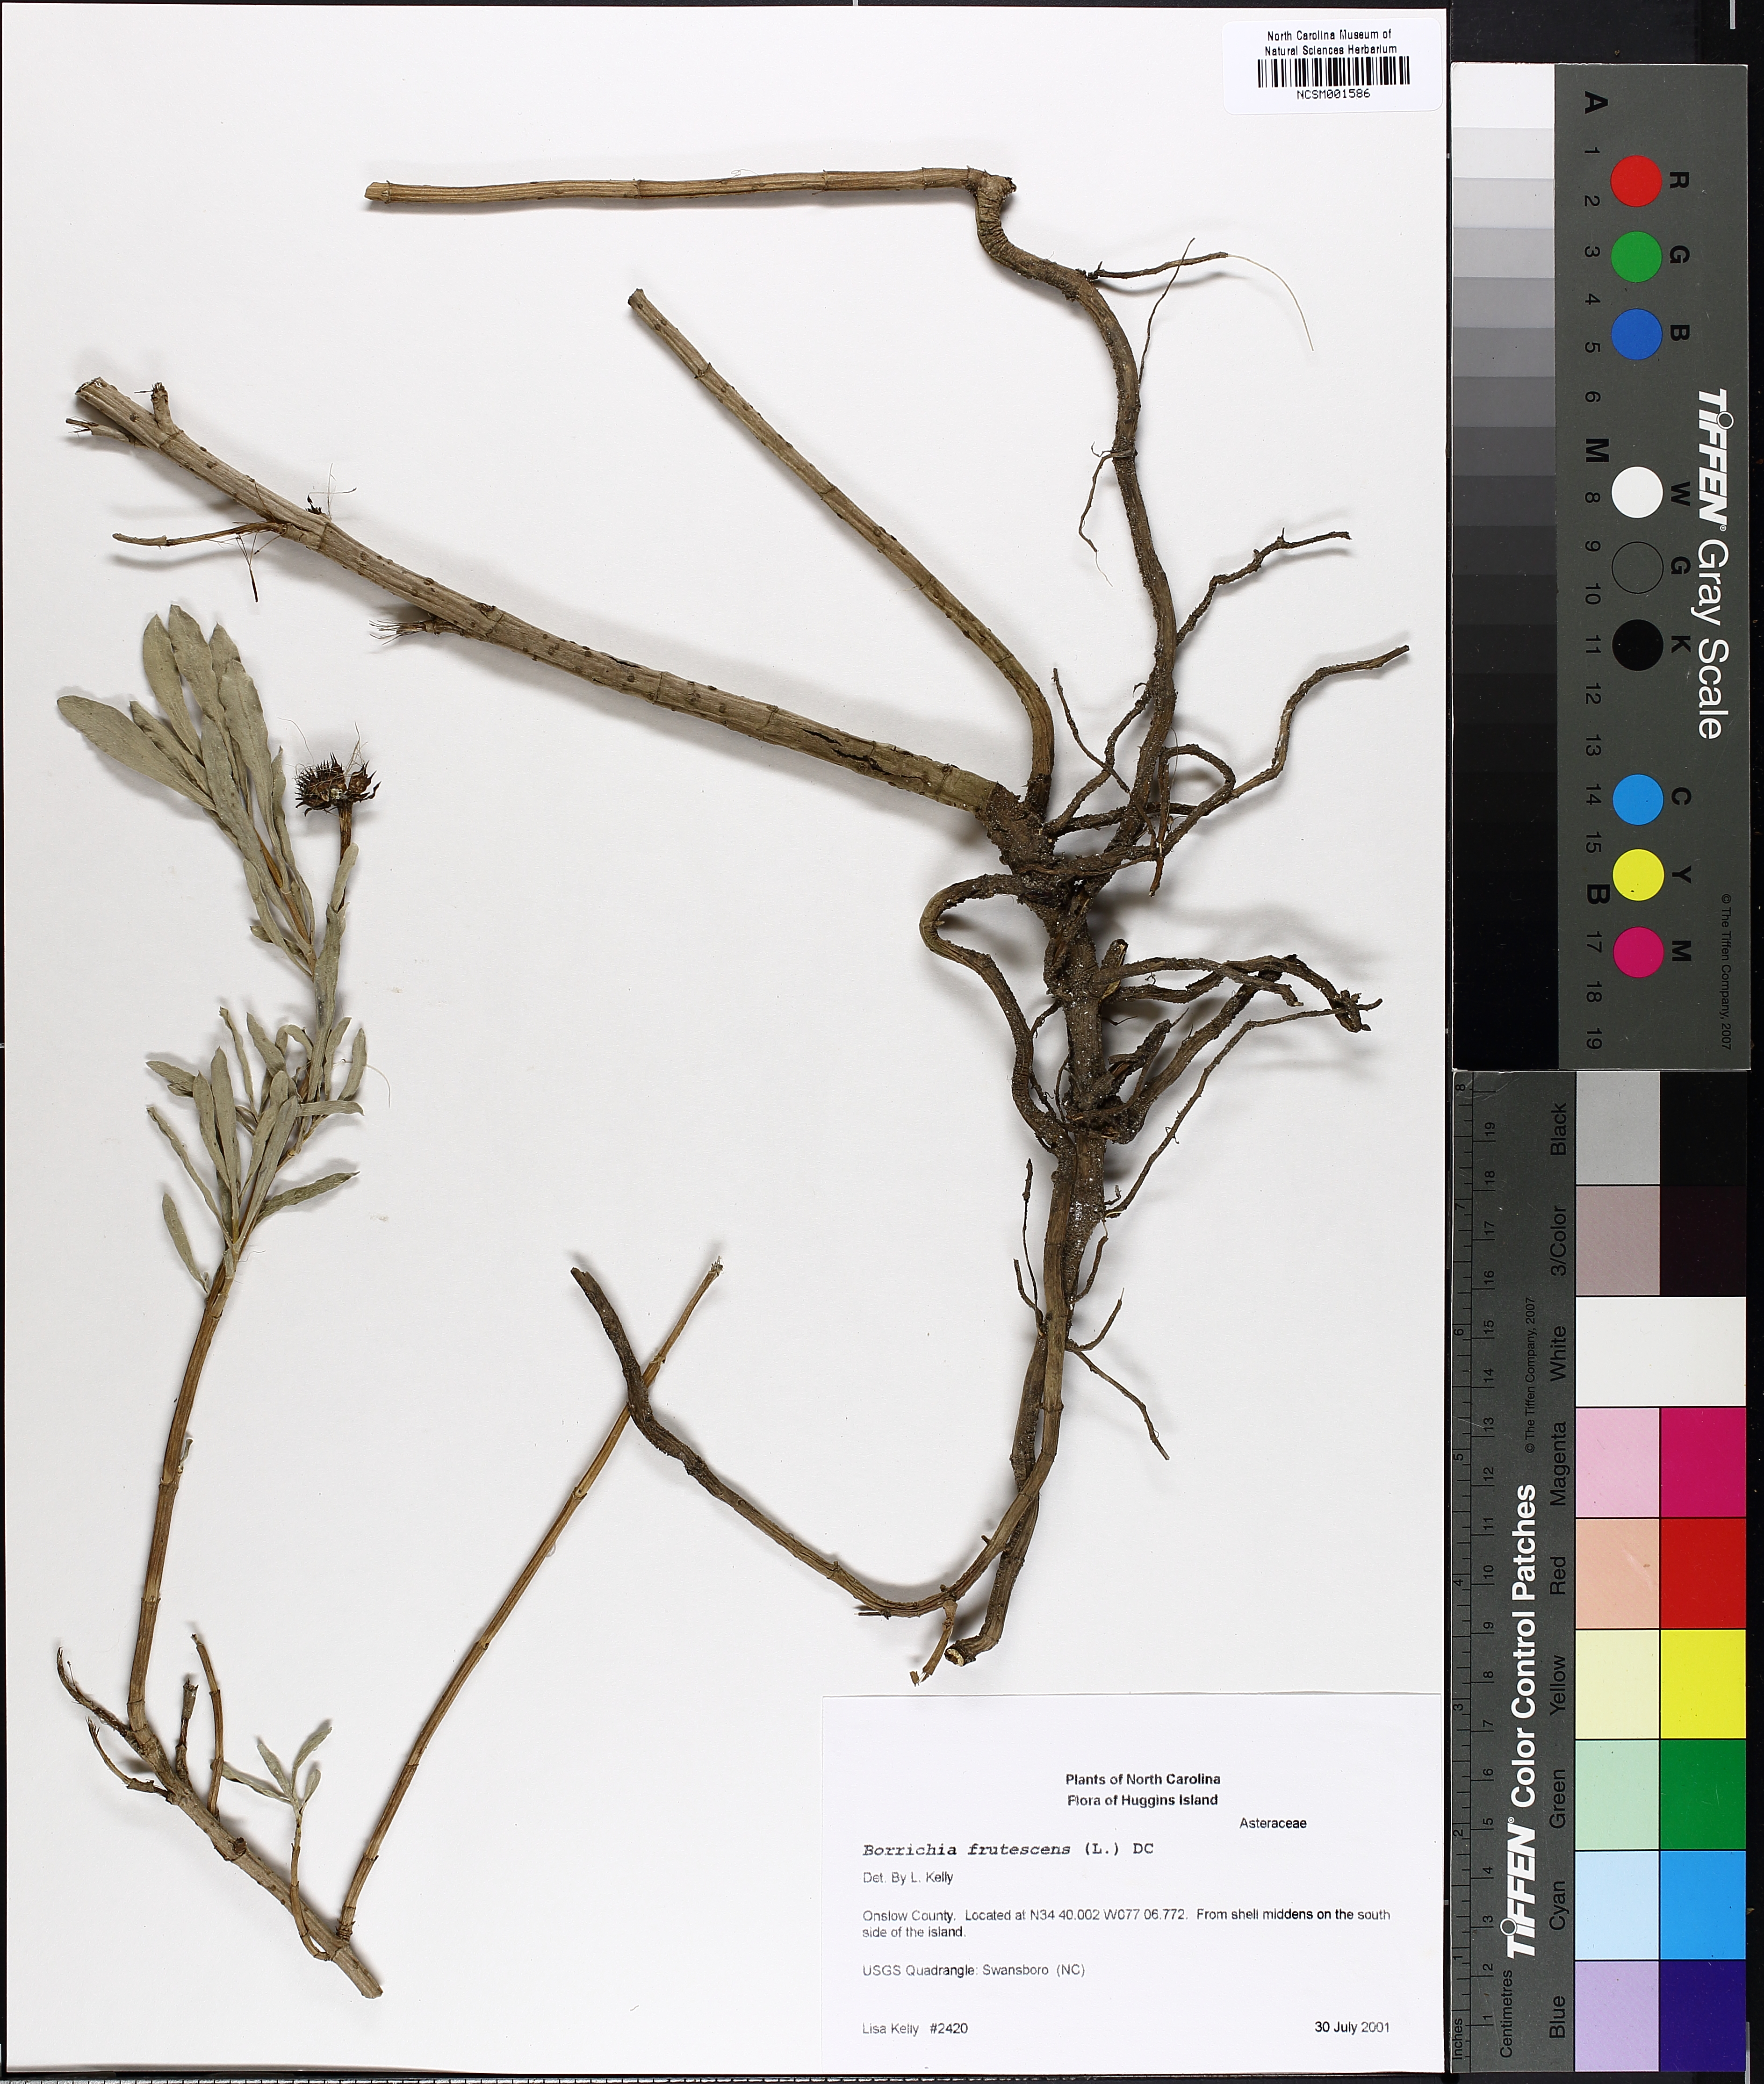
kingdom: Plantae
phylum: Tracheophyta
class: Magnoliopsida
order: Asterales
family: Asteraceae
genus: Borrichia
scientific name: Borrichia frutescens
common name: Sea oxeye
